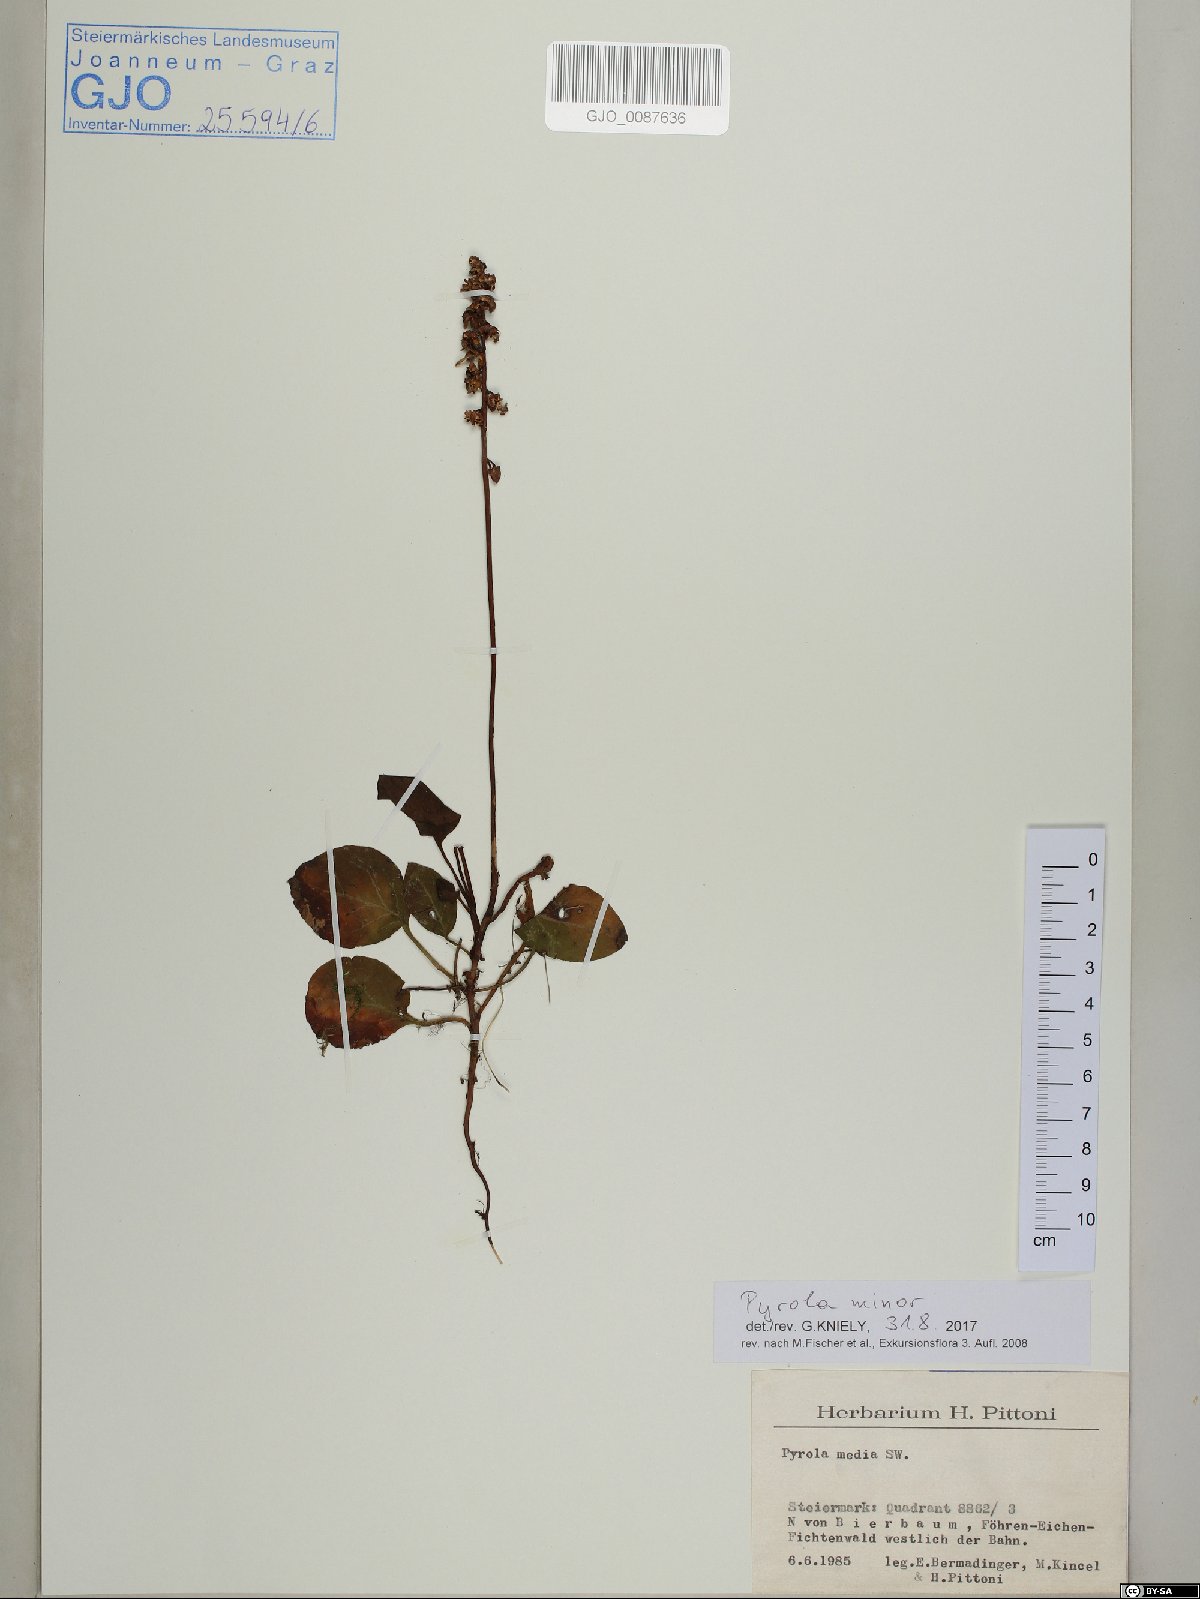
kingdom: Plantae
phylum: Tracheophyta
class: Magnoliopsida
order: Ericales
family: Ericaceae
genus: Pyrola
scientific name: Pyrola minor
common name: Common wintergreen
